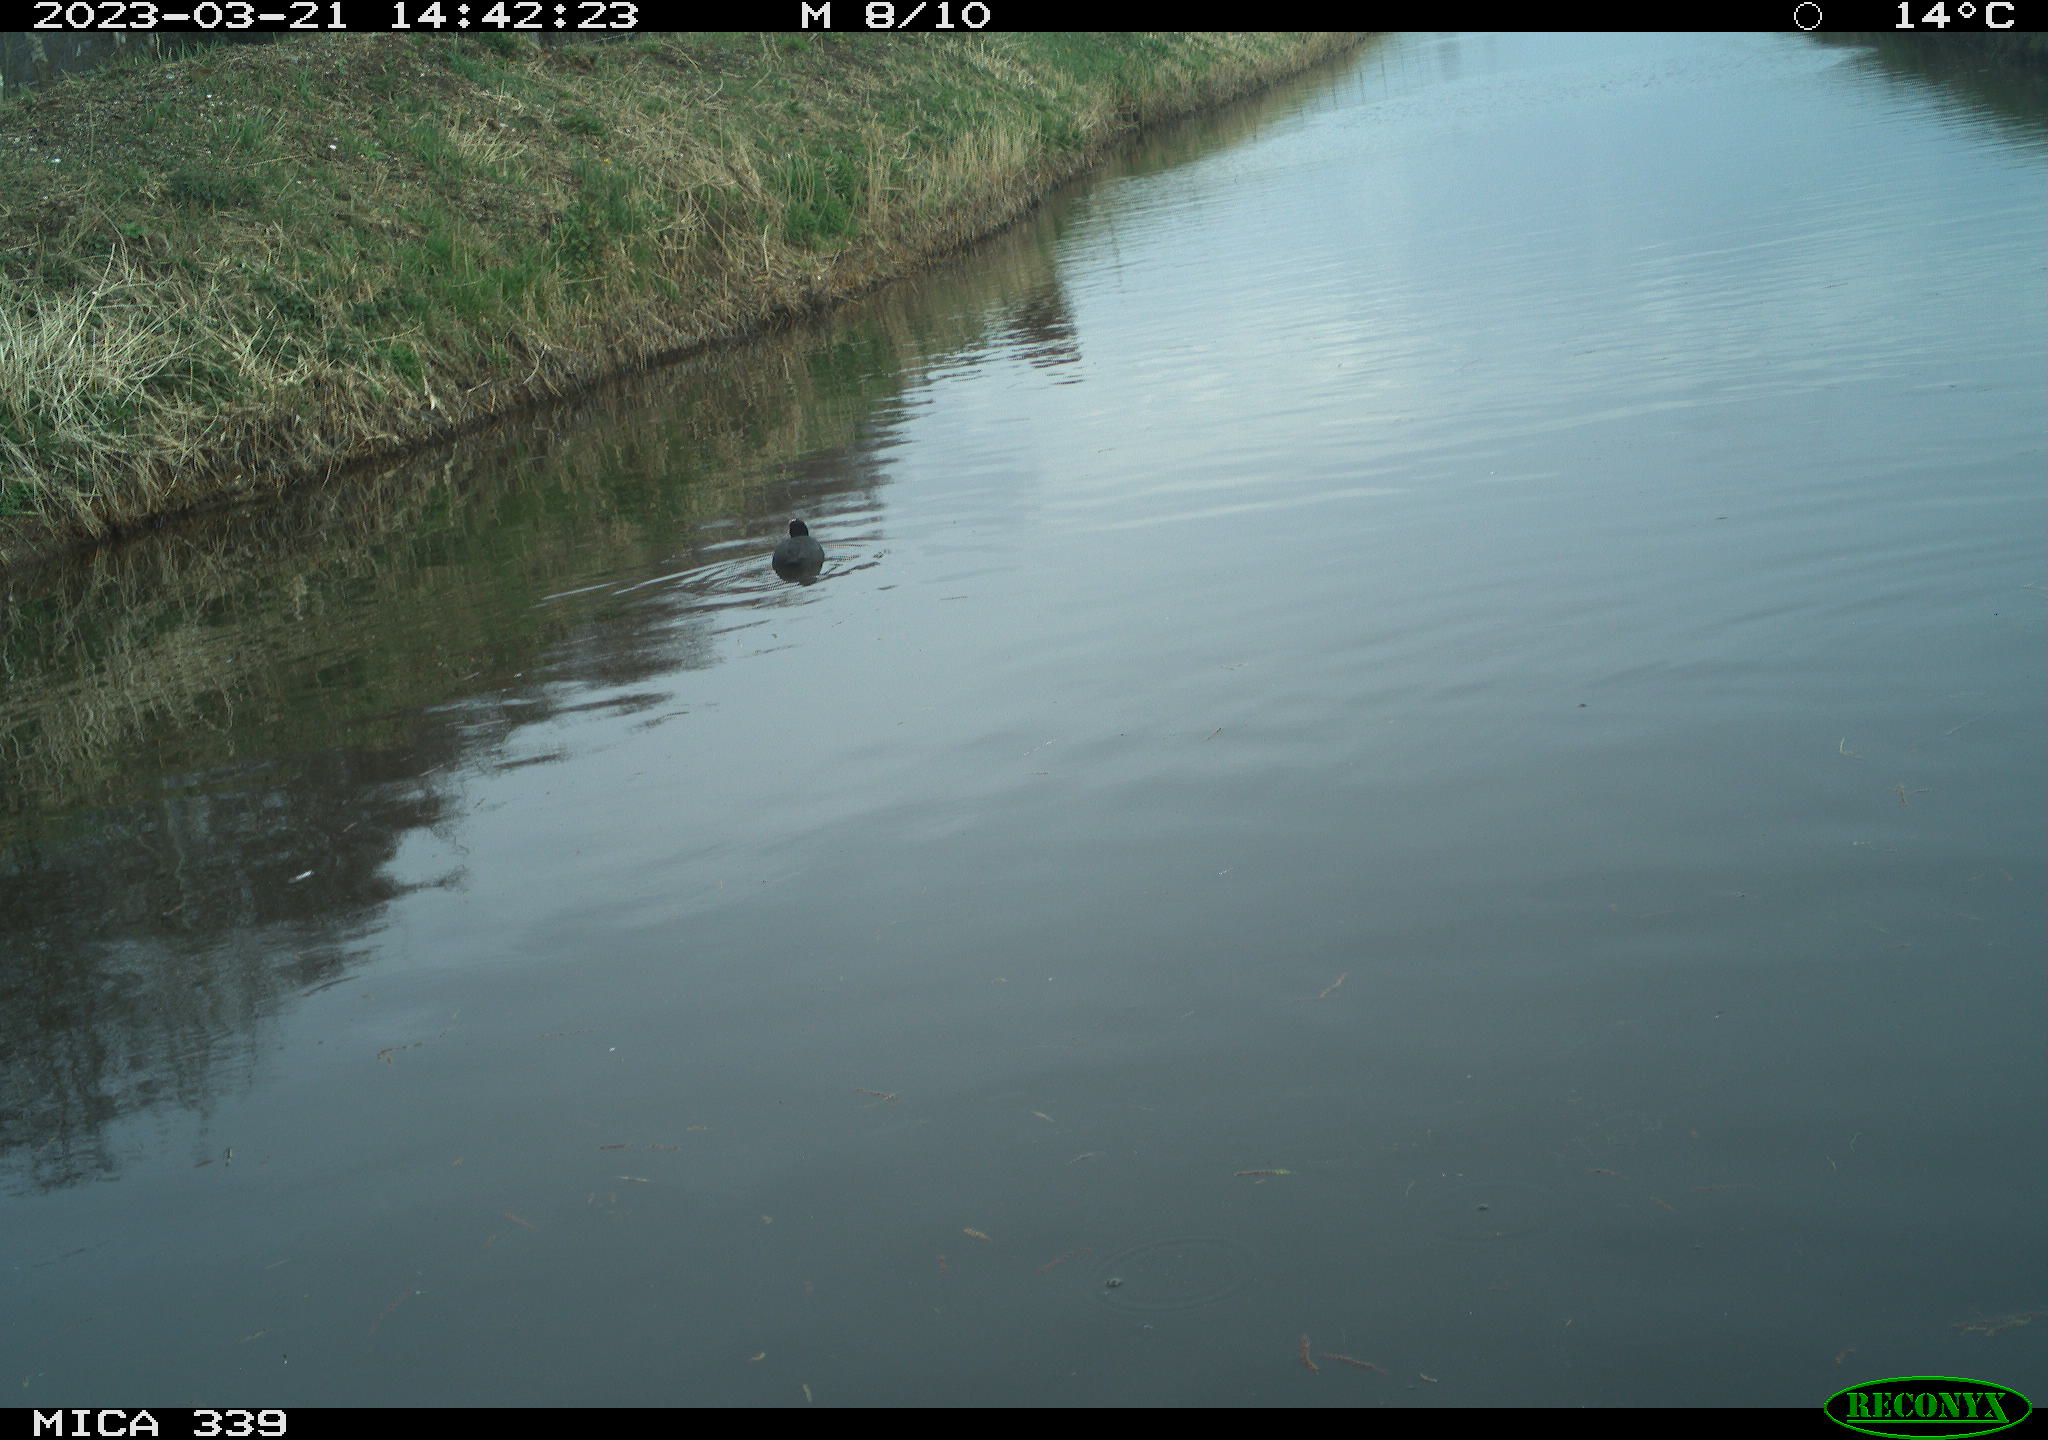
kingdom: Animalia
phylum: Chordata
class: Aves
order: Anseriformes
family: Anatidae
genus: Anas
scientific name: Anas
